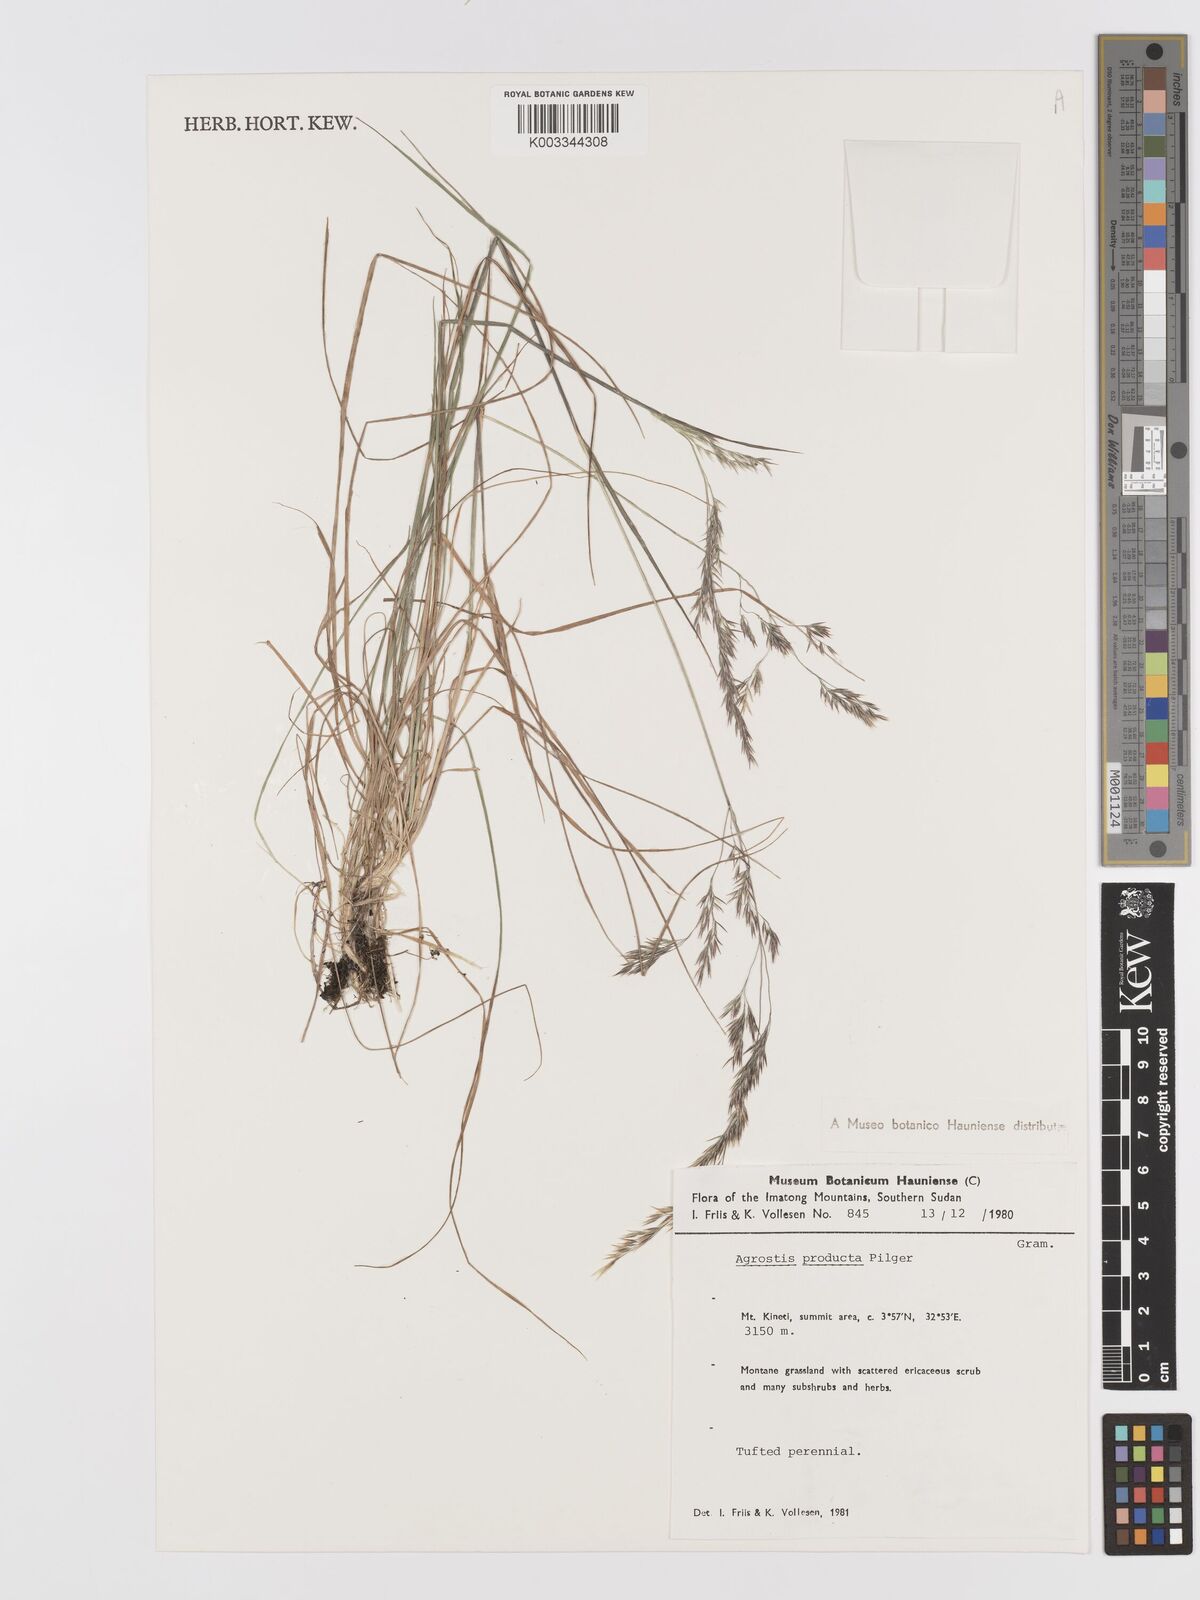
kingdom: Plantae
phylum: Tracheophyta
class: Liliopsida
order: Poales
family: Poaceae
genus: Agrostis
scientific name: Agrostis producta
